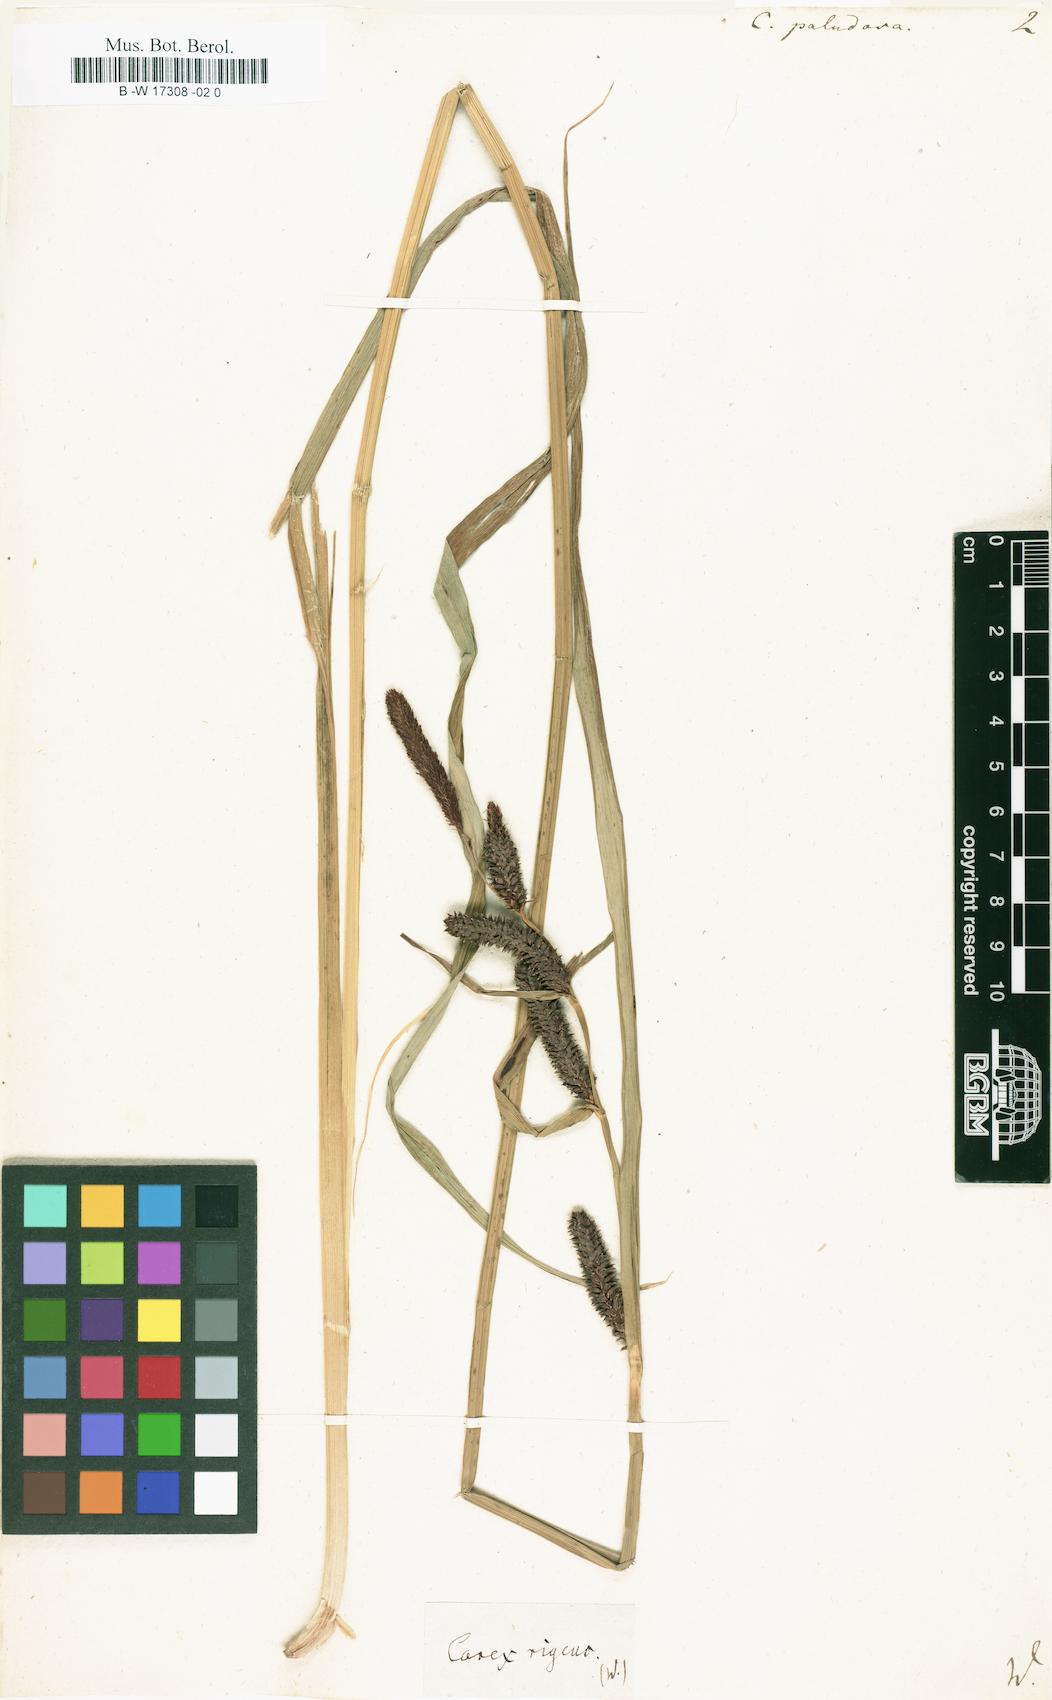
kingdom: Plantae
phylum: Tracheophyta
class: Liliopsida
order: Poales
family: Cyperaceae
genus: Carex
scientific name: Carex acutiformis
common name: Lesser pond-sedge
